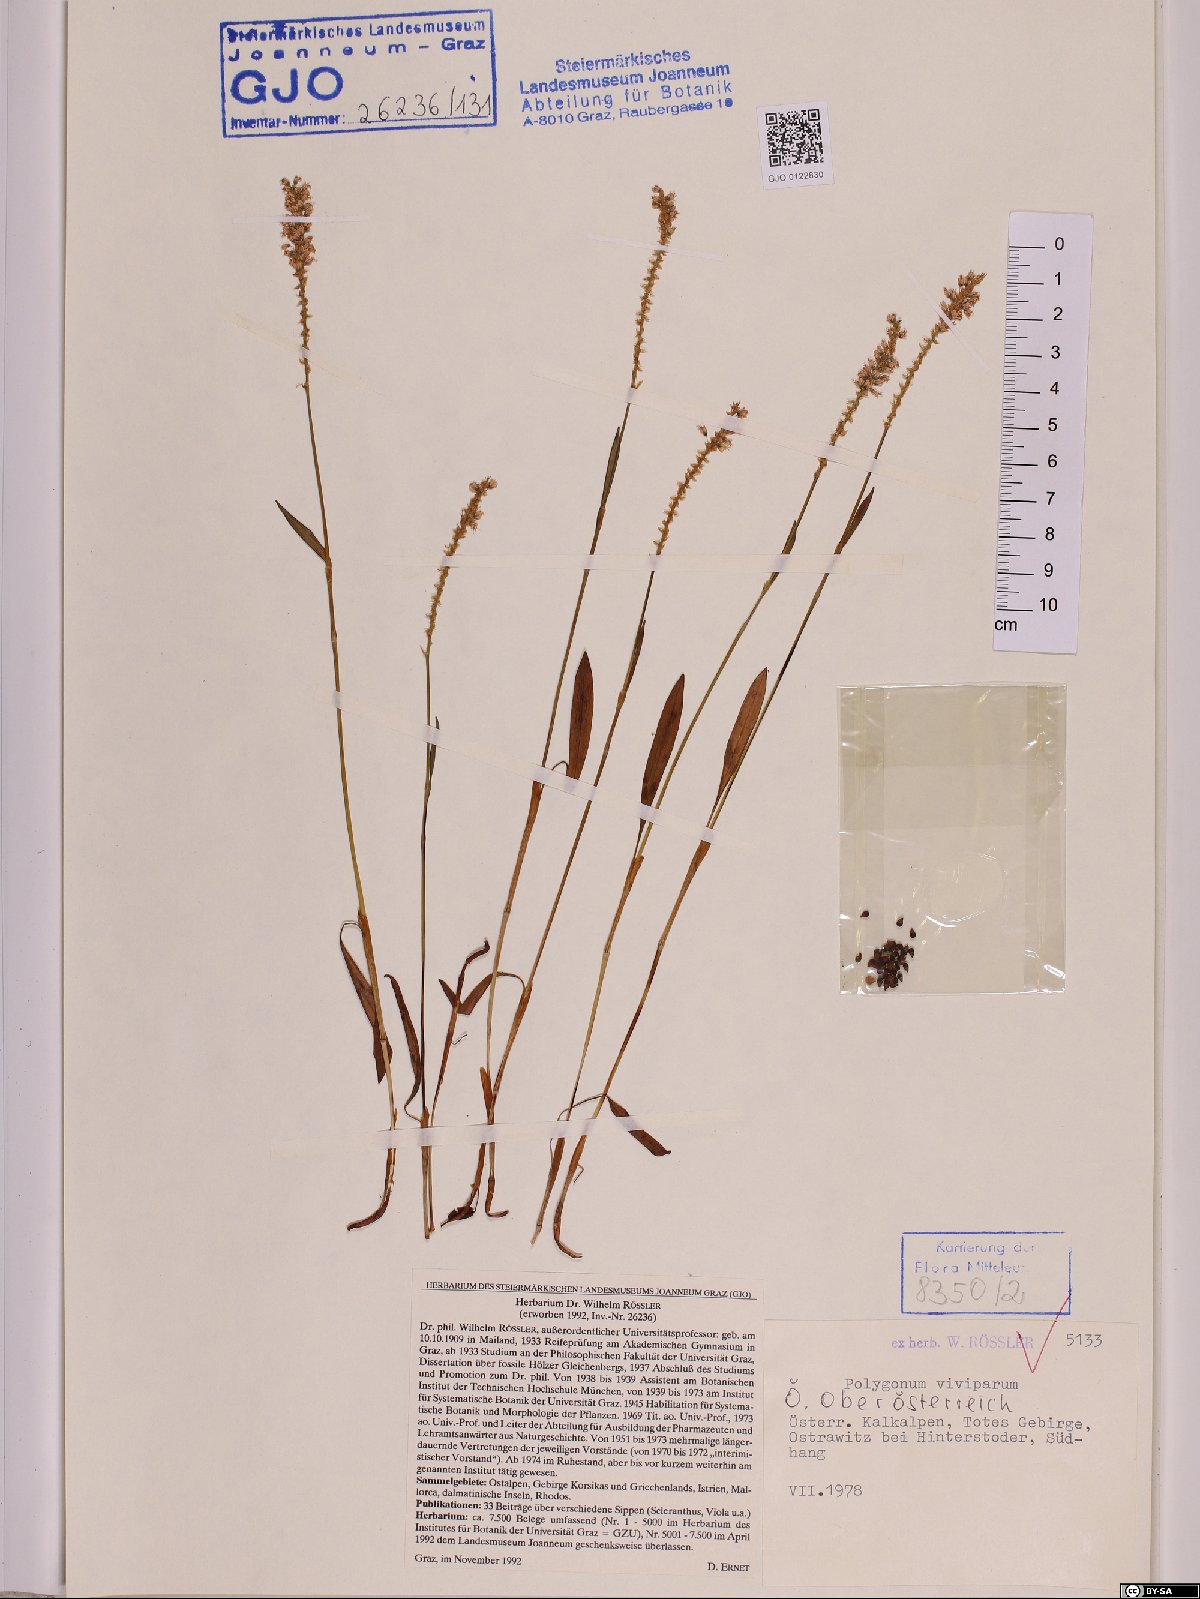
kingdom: Plantae
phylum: Tracheophyta
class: Magnoliopsida
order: Caryophyllales
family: Polygonaceae
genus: Bistorta
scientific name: Bistorta vivipara
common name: Alpine bistort
